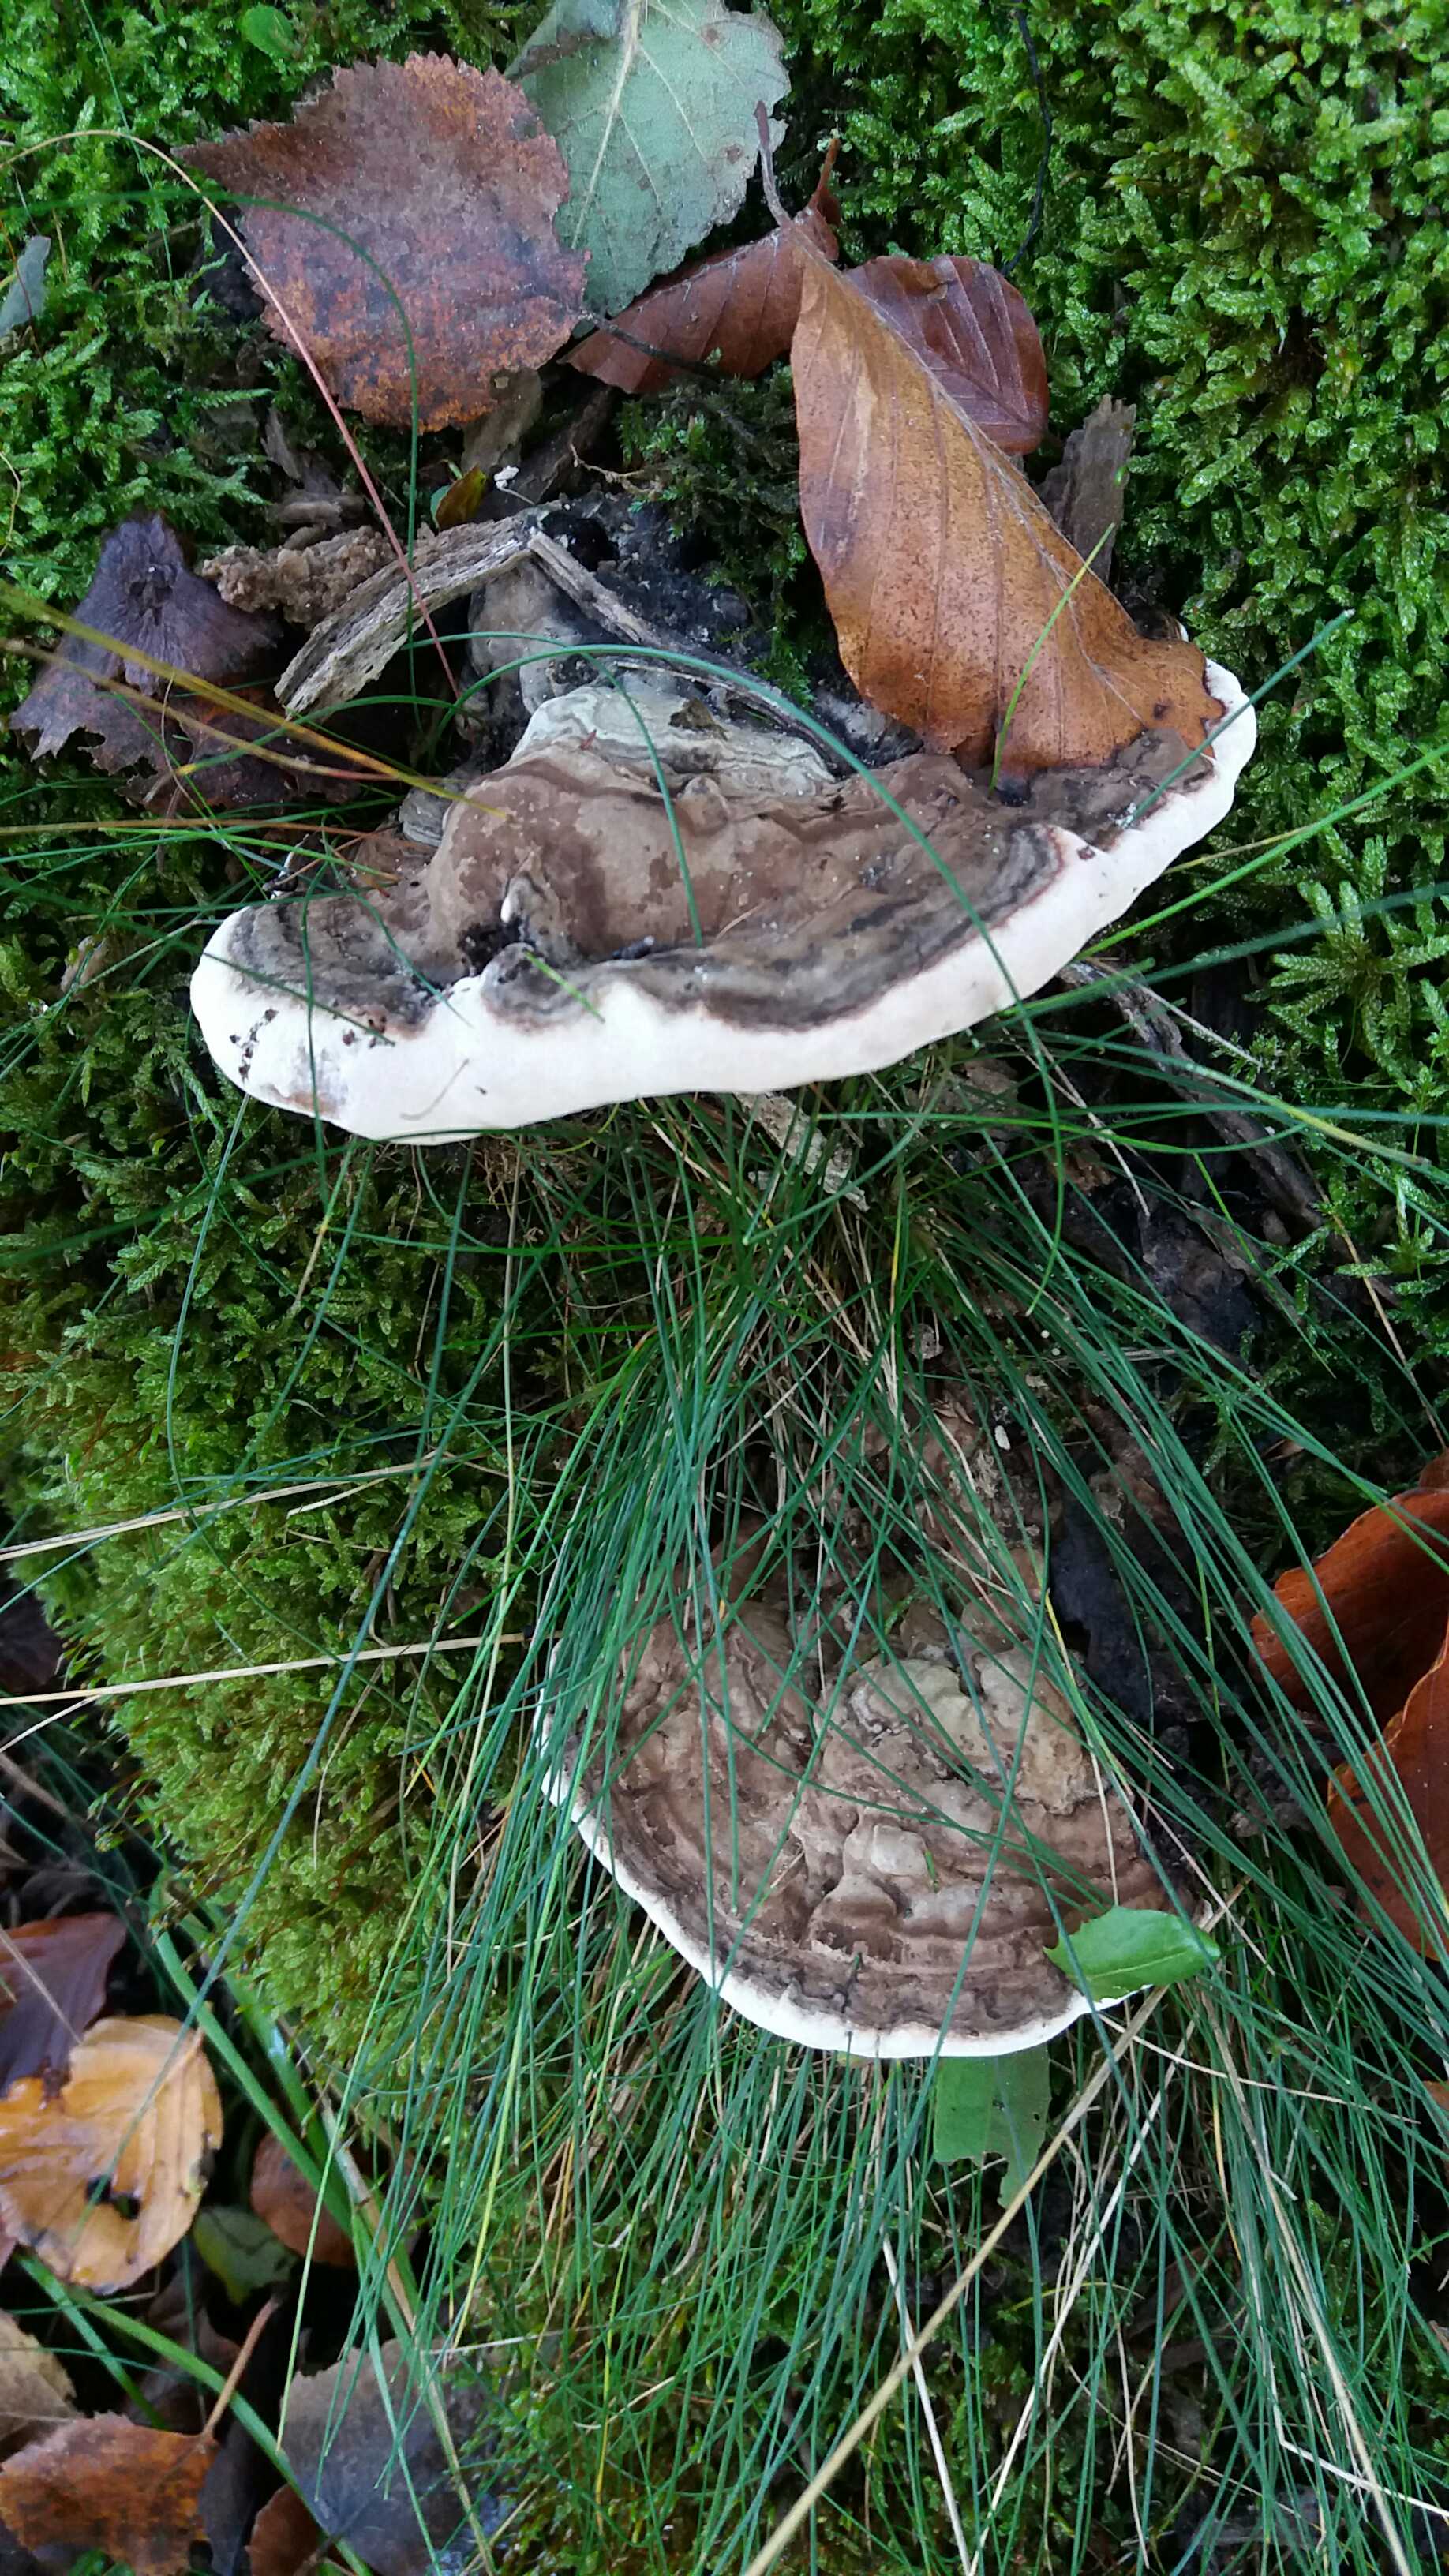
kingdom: Fungi
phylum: Basidiomycota
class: Agaricomycetes
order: Polyporales
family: Polyporaceae
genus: Ganoderma
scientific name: Ganoderma applanatum
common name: flad lakporesvamp
